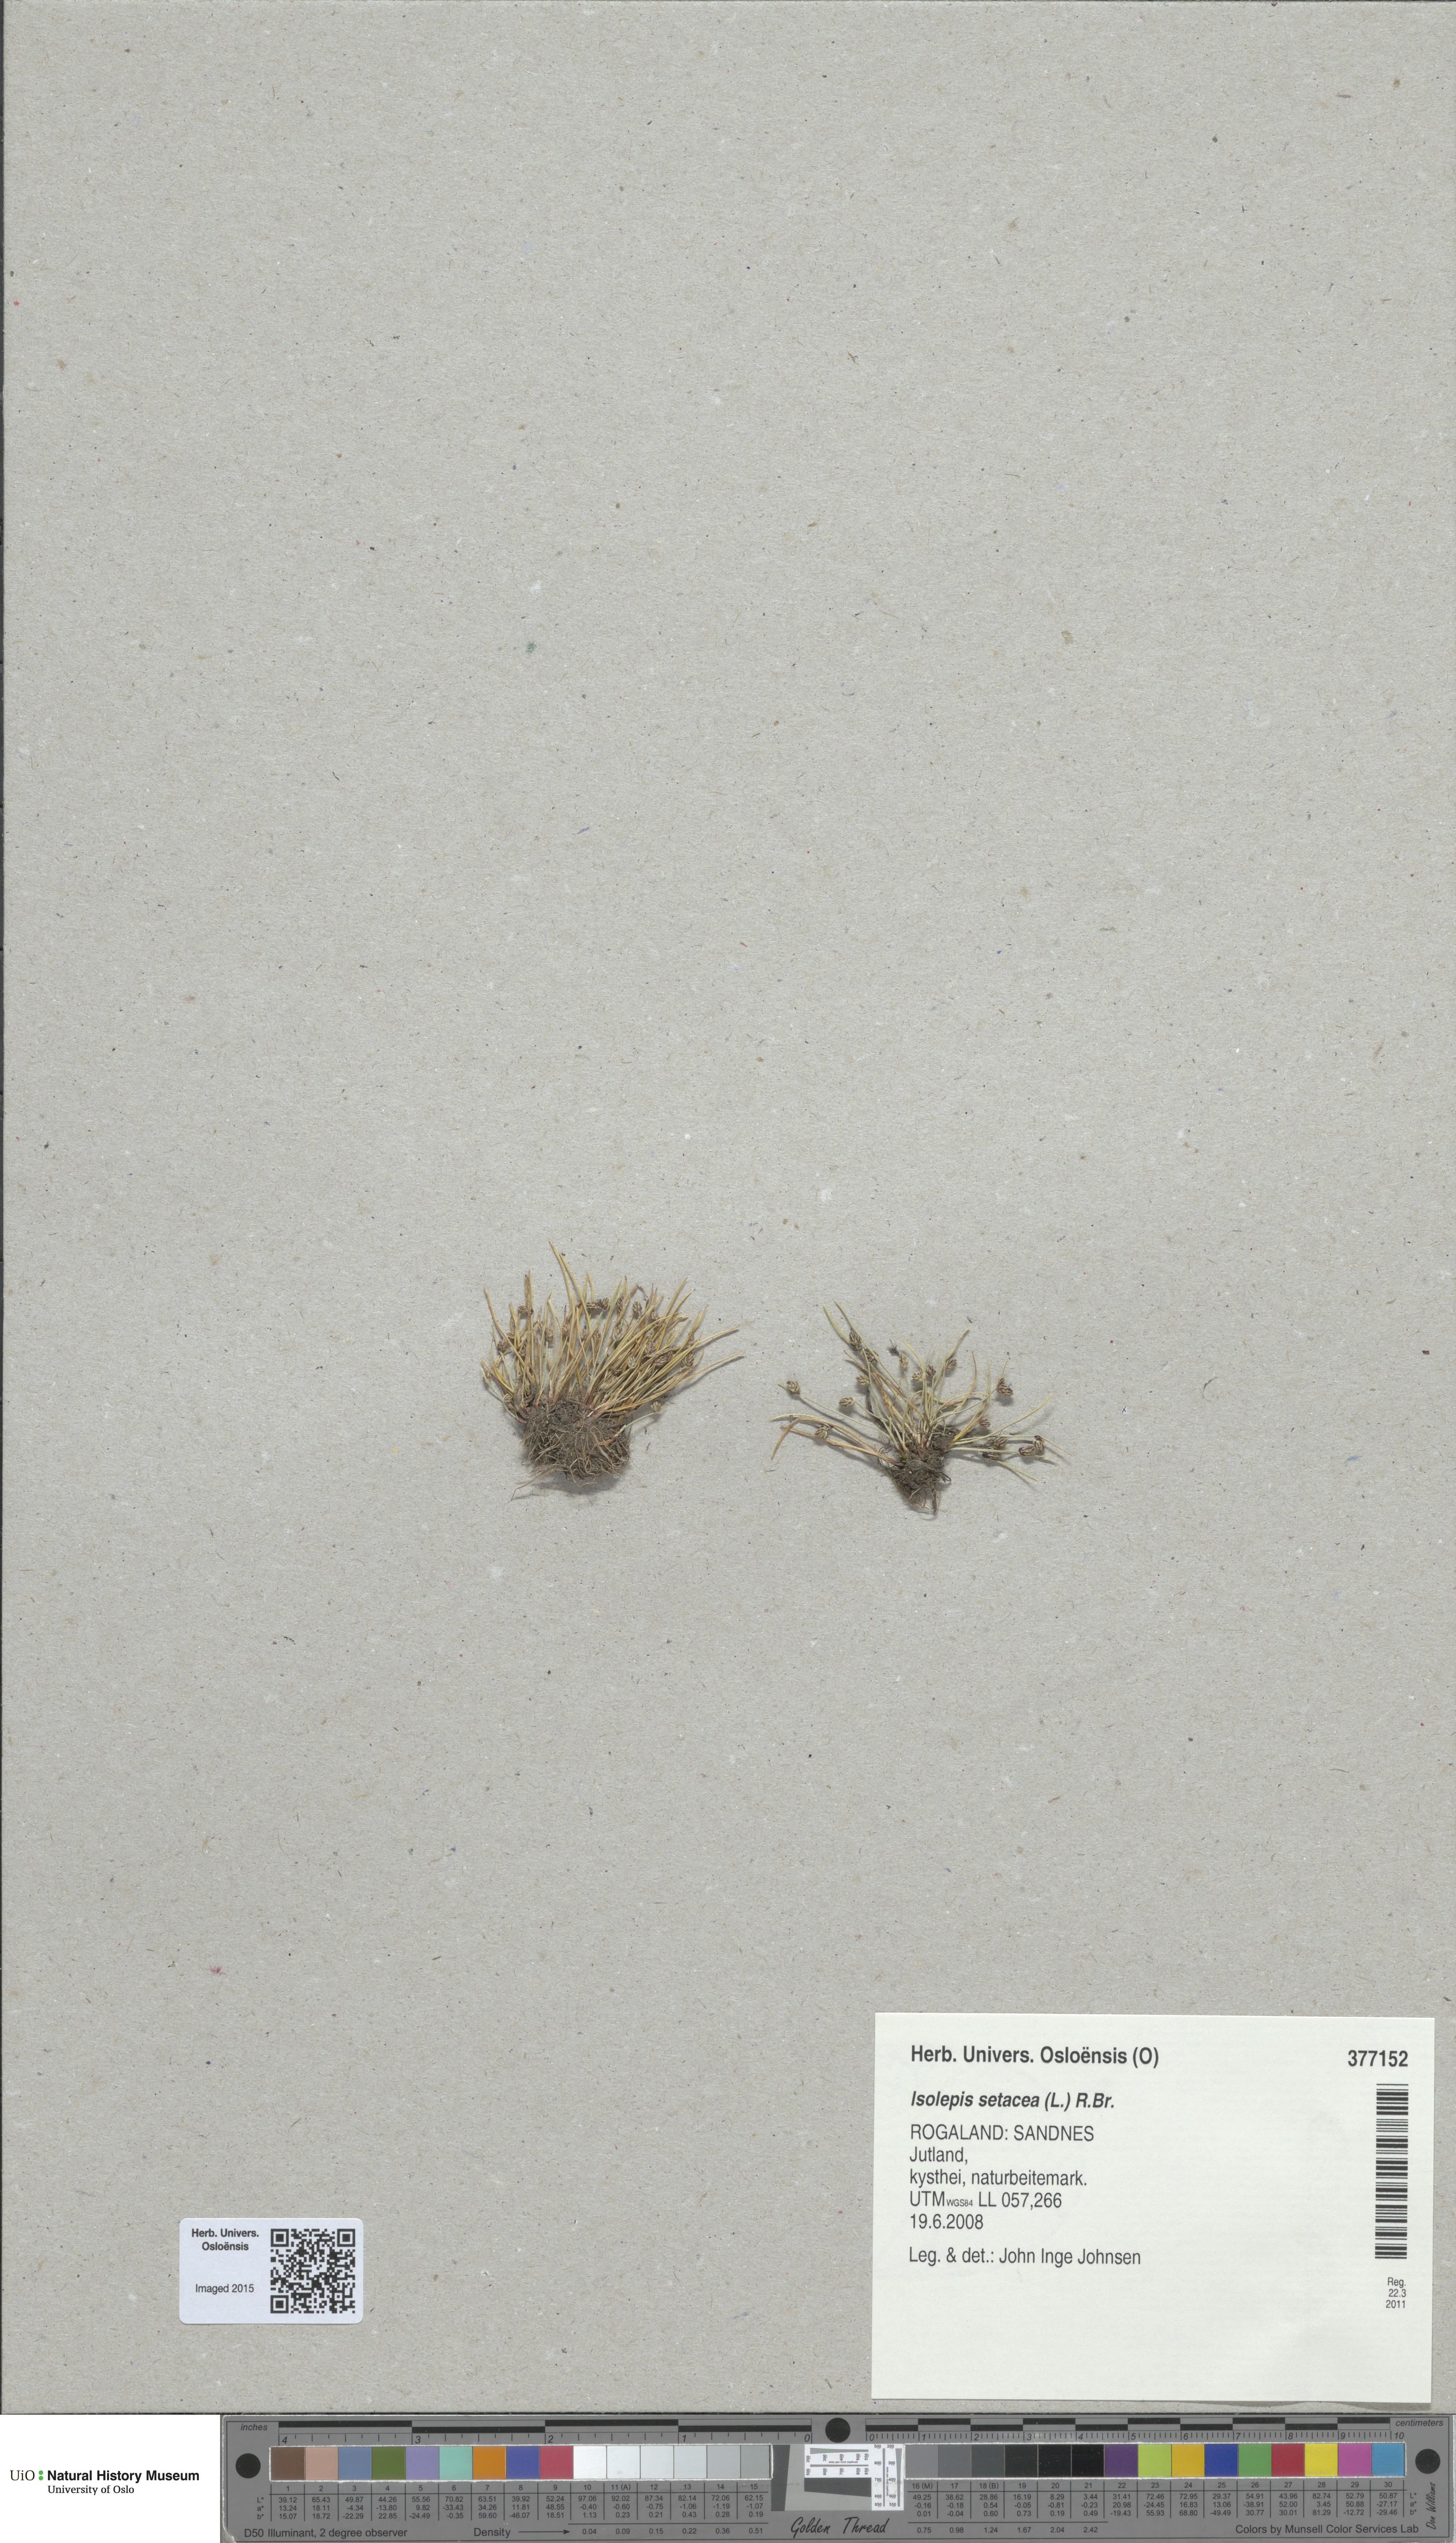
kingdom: Plantae
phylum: Tracheophyta
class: Liliopsida
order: Poales
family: Cyperaceae
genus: Isolepis
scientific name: Isolepis setacea
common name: Bristle club-rush
